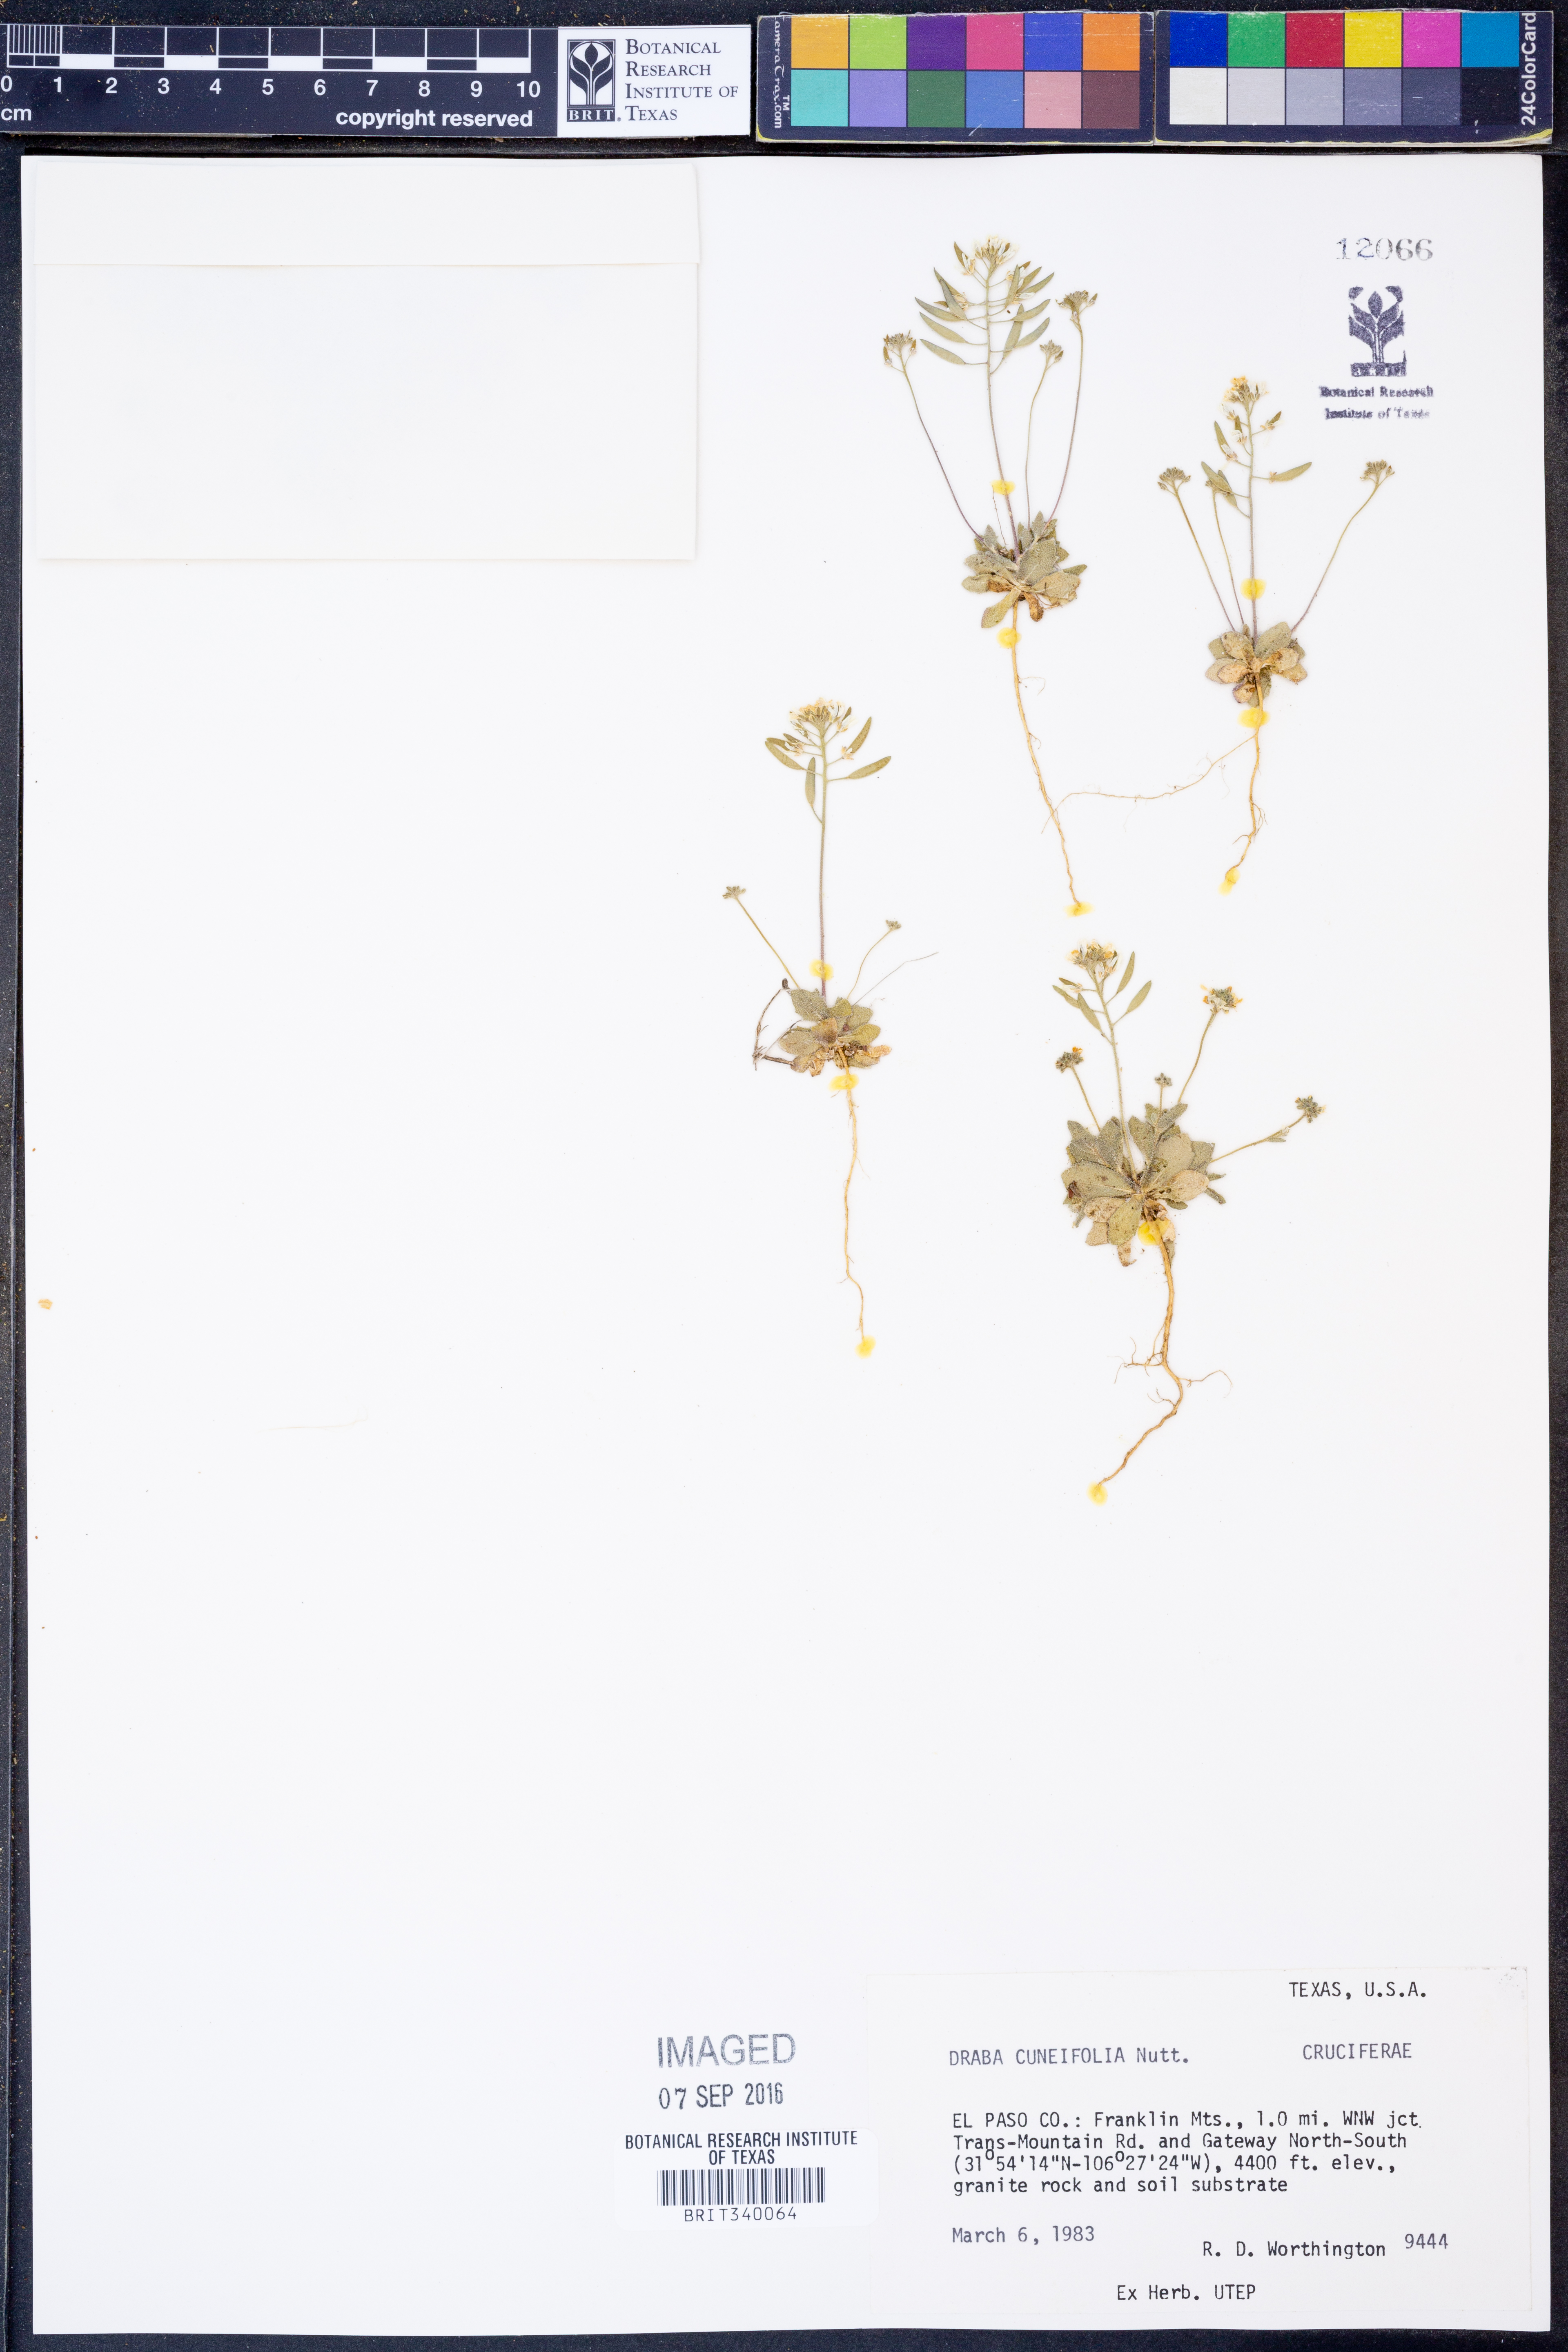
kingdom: Plantae
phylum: Tracheophyta
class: Magnoliopsida
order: Brassicales
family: Brassicaceae
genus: Tomostima
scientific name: Tomostima cuneifolia
